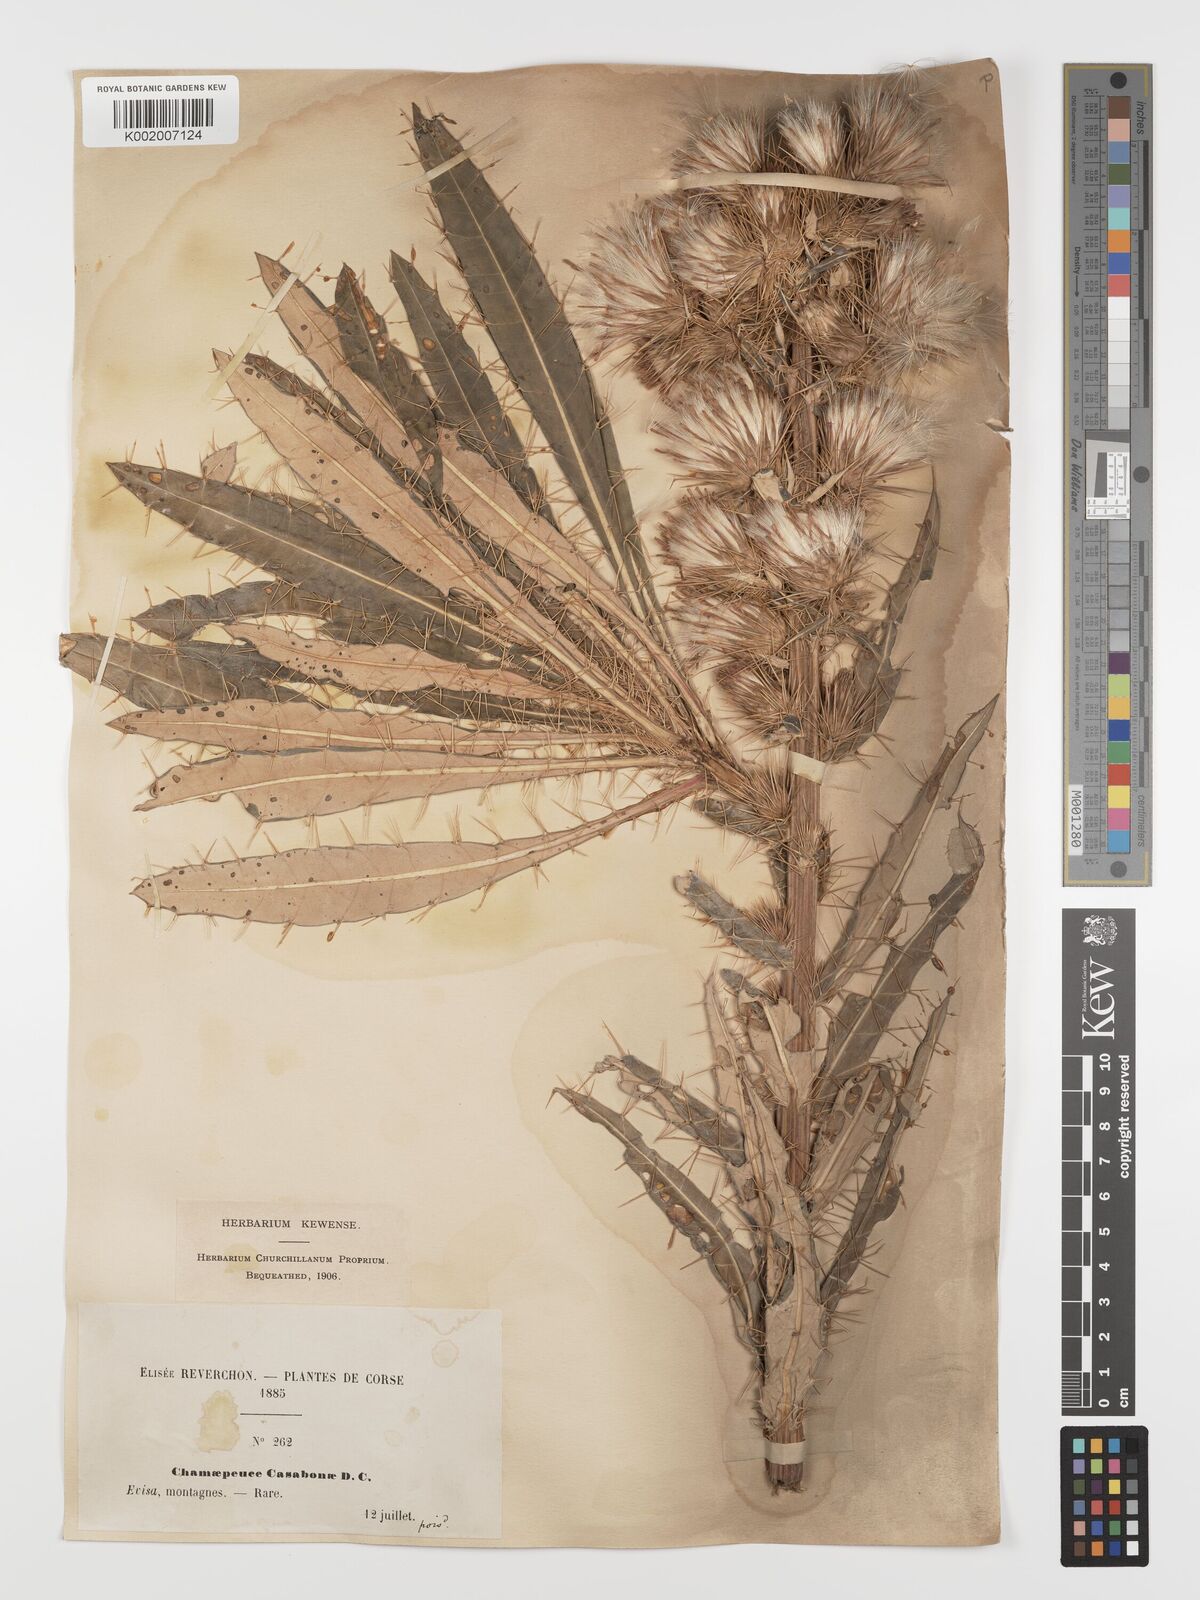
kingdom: Plantae
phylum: Tracheophyta
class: Magnoliopsida
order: Asterales
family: Asteraceae
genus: Ptilostemon
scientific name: Ptilostemon casabonae
